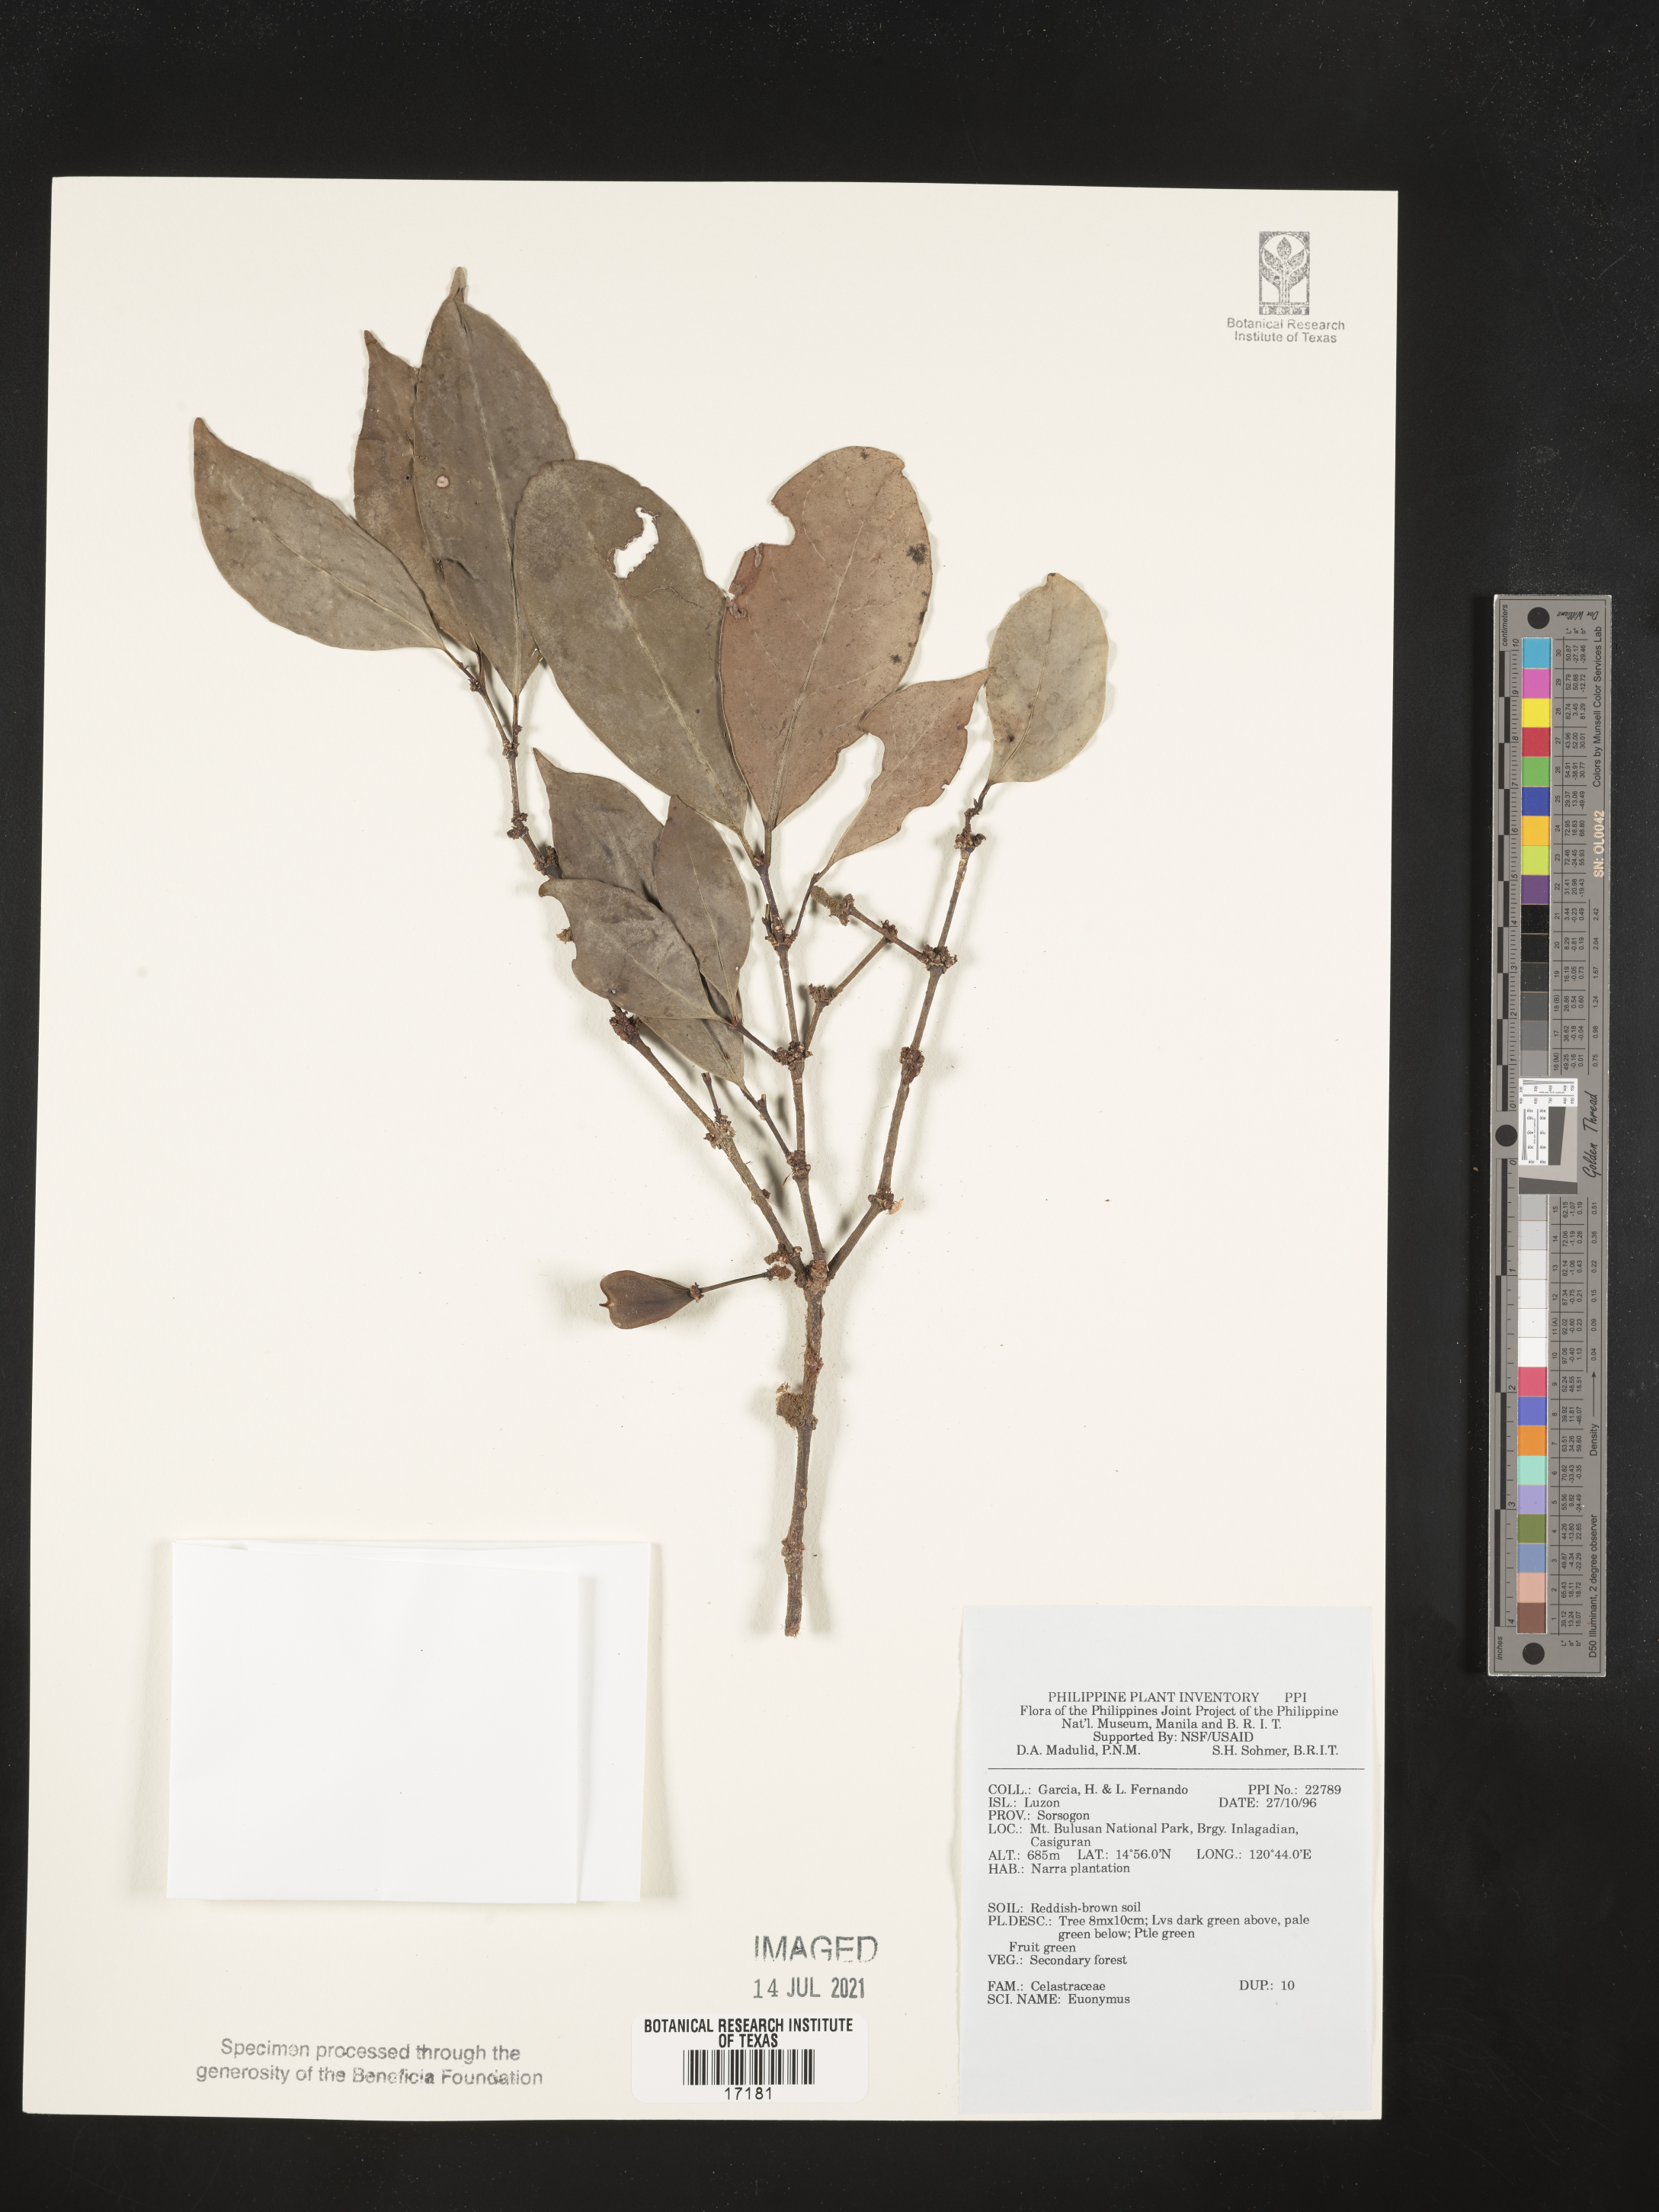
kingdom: Plantae
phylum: Tracheophyta
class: Magnoliopsida
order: Celastrales
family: Celastraceae
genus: Euonymus
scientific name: Euonymus
